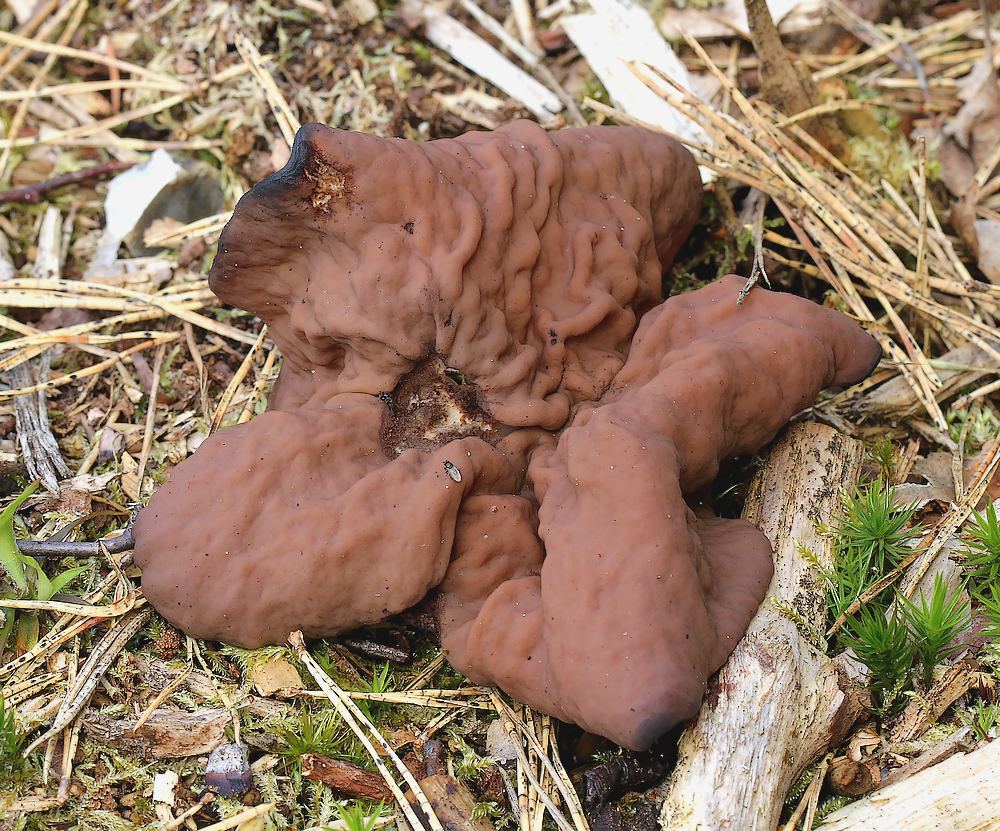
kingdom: Fungi
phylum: Ascomycota
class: Pezizomycetes
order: Pezizales
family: Discinaceae
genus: Discina
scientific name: Discina ancilis
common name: udbredt stenmorkel
